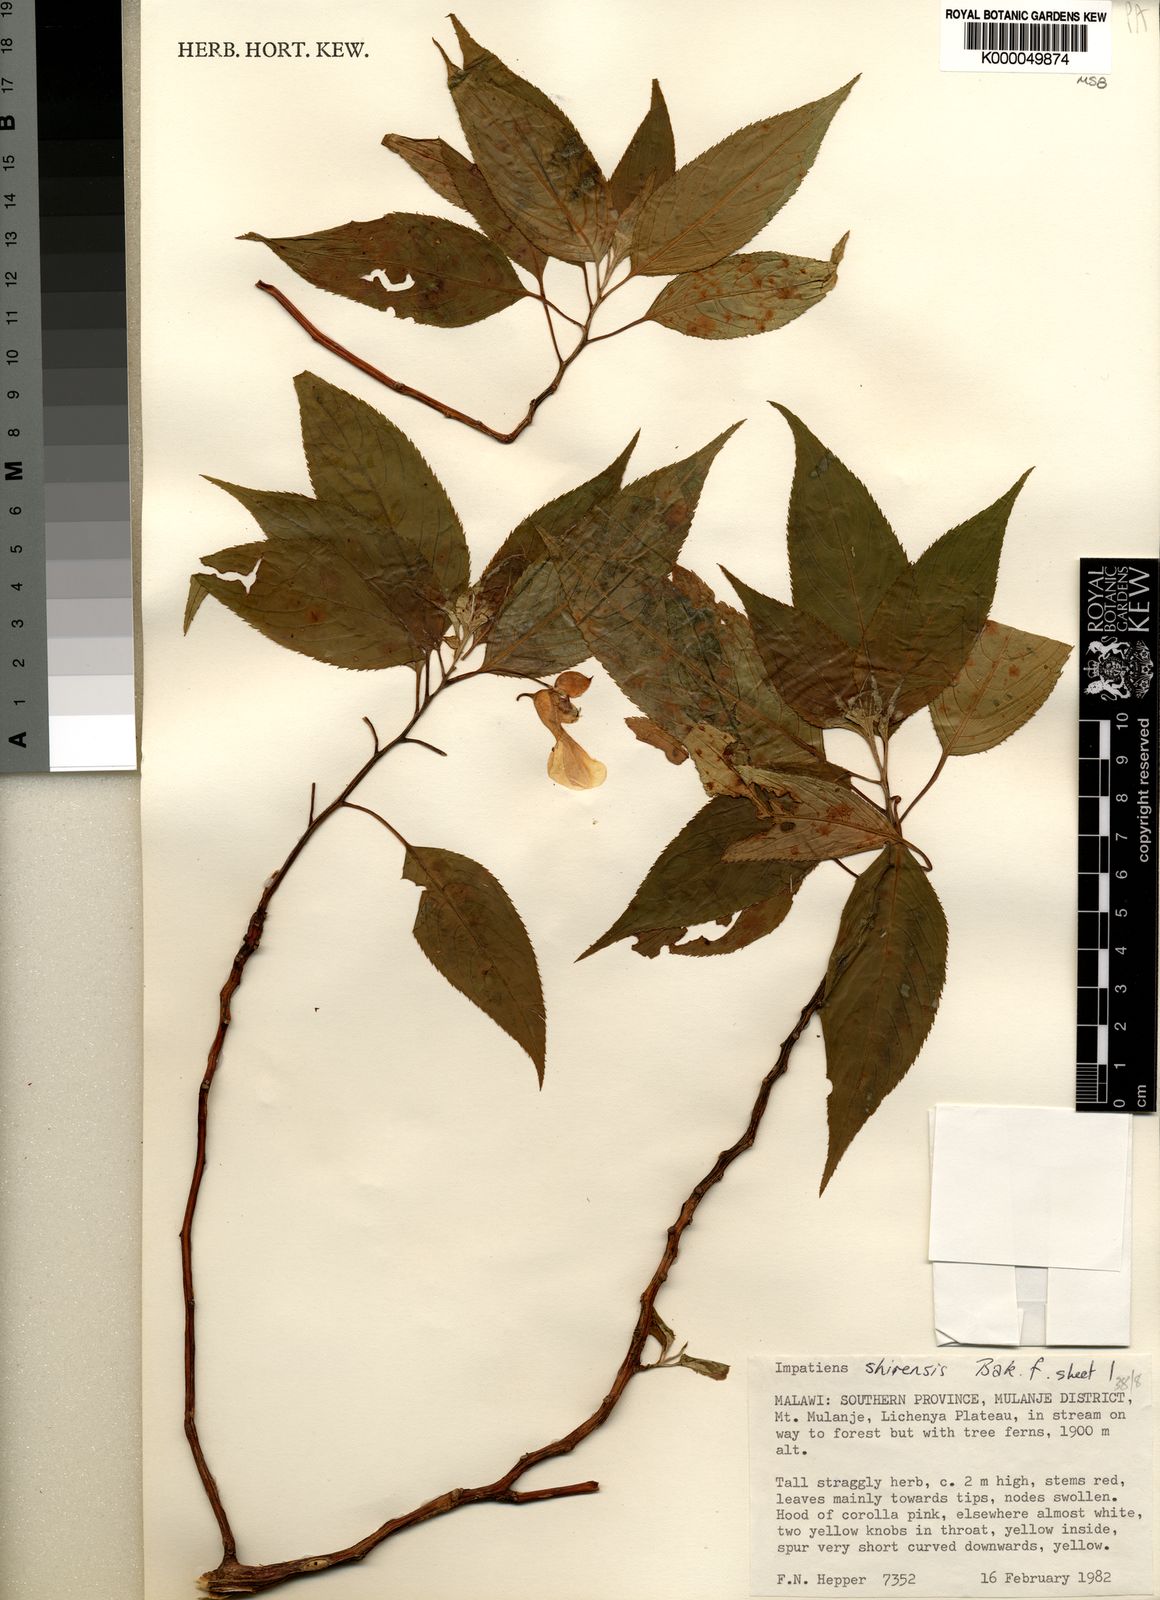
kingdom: Plantae
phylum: Tracheophyta
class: Magnoliopsida
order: Ericales
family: Balsaminaceae
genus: Impatiens
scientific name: Impatiens shirensis
